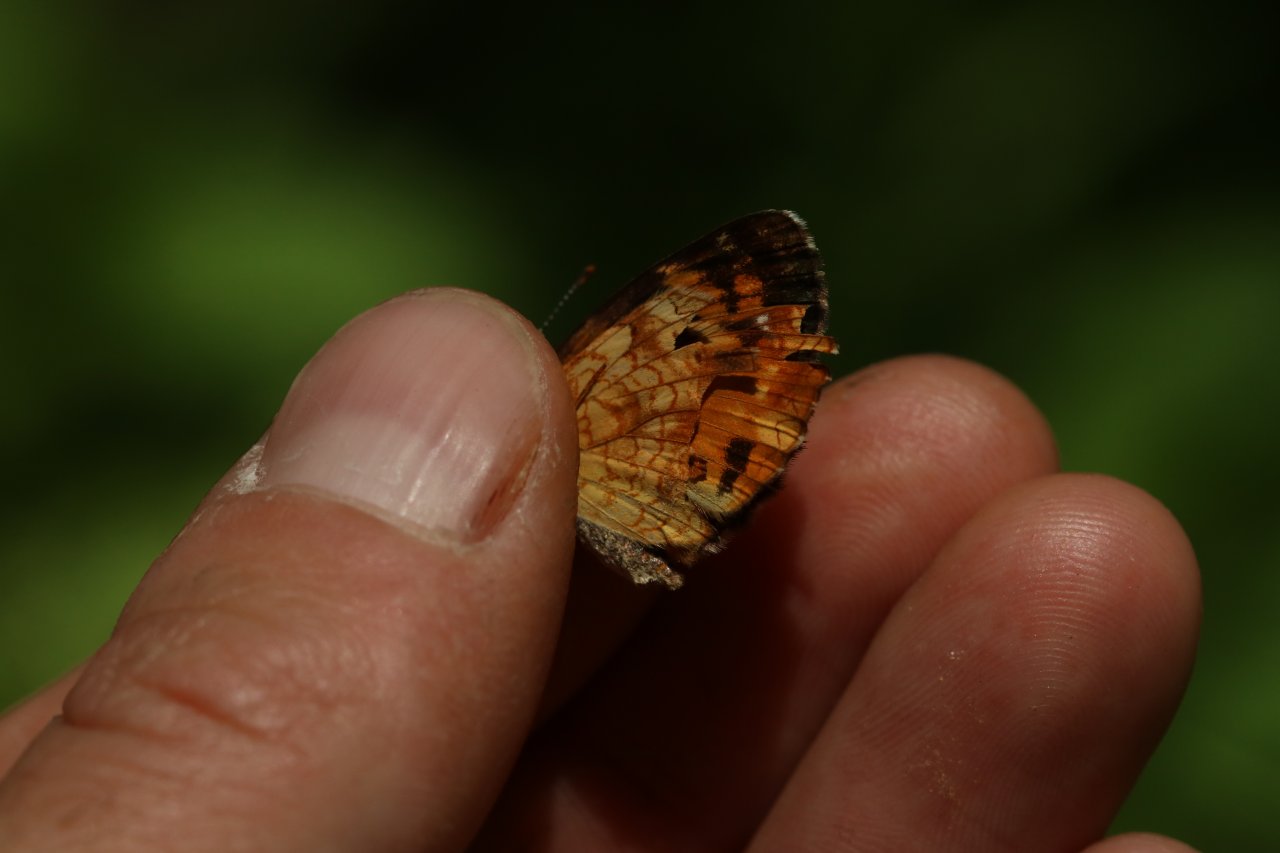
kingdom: Animalia
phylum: Arthropoda
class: Insecta
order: Lepidoptera
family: Nymphalidae
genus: Phyciodes
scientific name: Phyciodes tharos
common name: Northern Crescent
